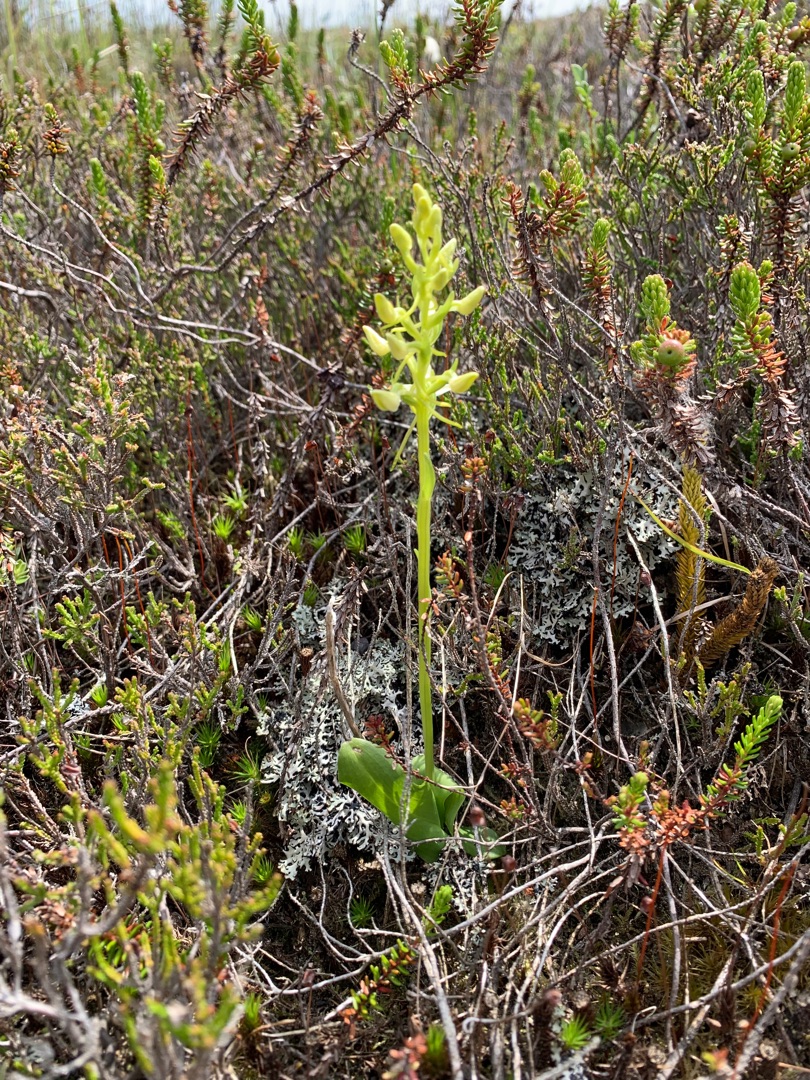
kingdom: Plantae
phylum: Tracheophyta
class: Liliopsida
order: Asparagales
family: Orchidaceae
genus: Platanthera
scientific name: Platanthera bifolia
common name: Bakke-gøgelilje
